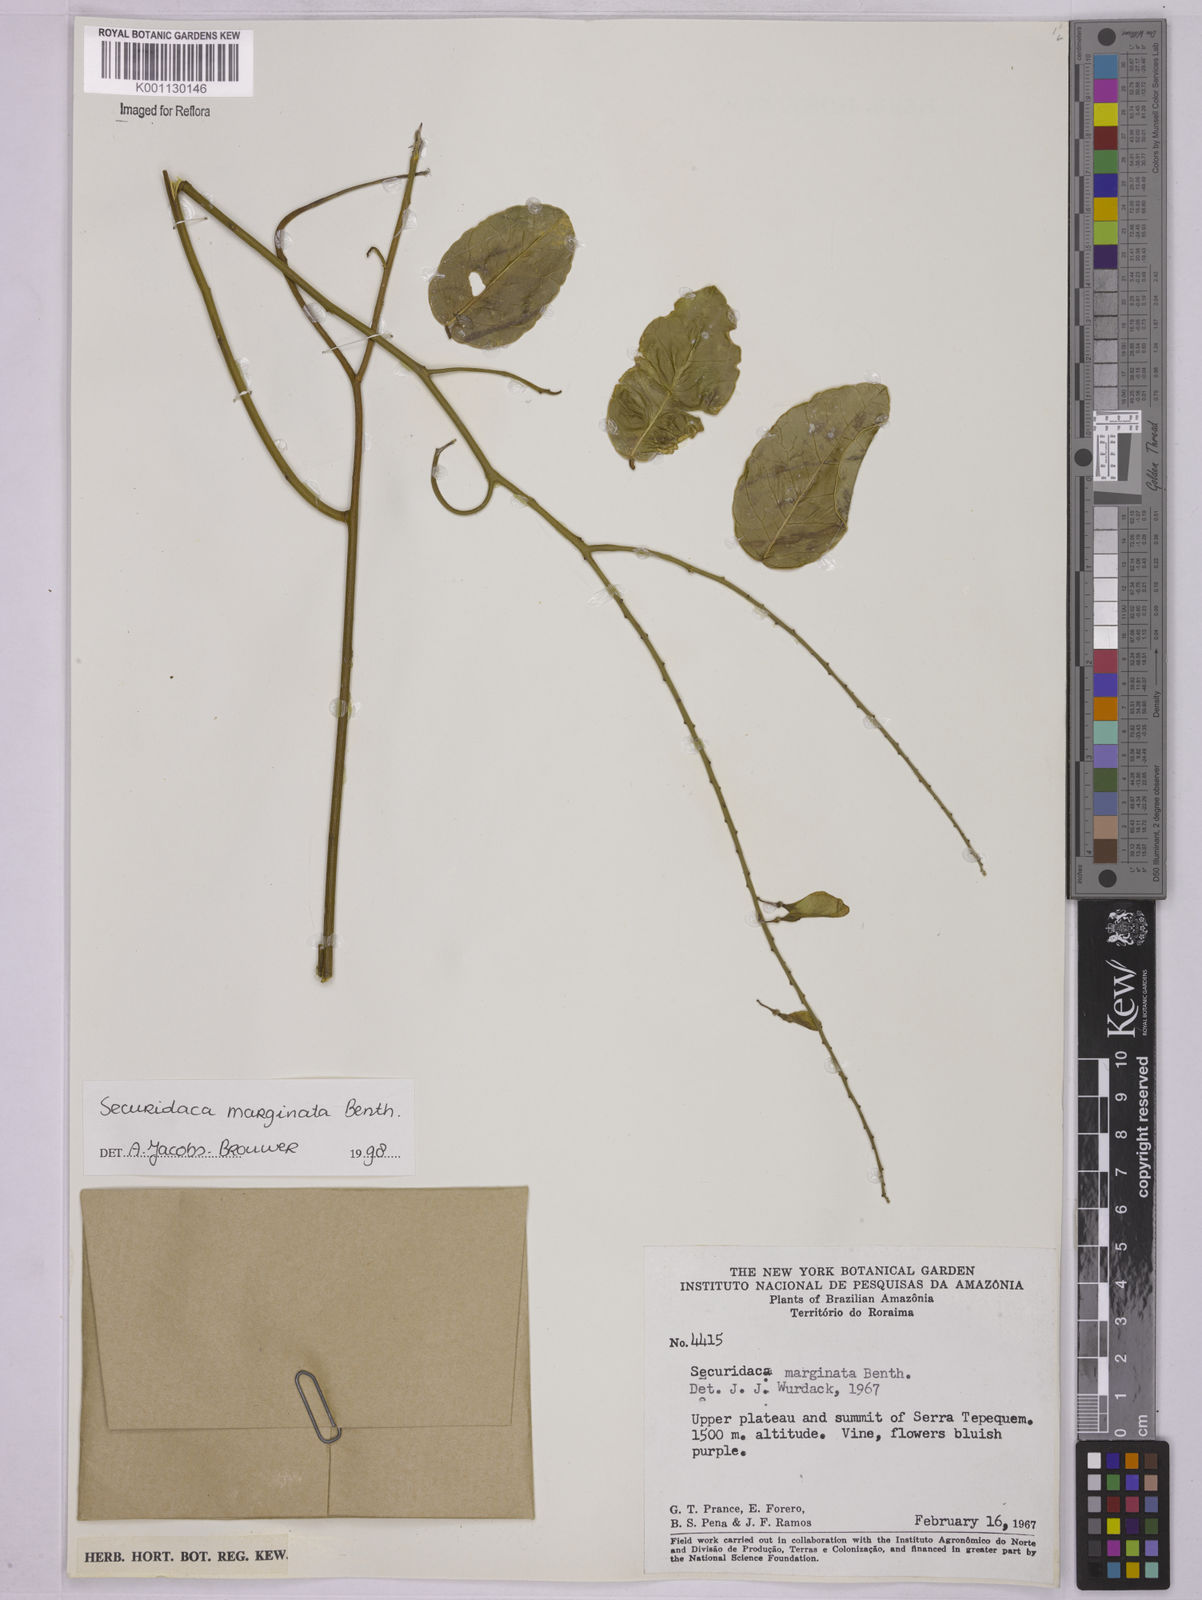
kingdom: Plantae
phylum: Tracheophyta
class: Magnoliopsida
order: Fabales
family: Polygalaceae
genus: Securidaca
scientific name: Securidaca marginata
